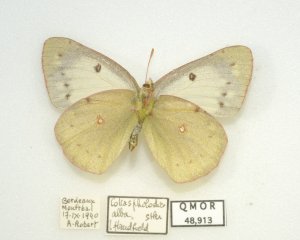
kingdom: Animalia
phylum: Arthropoda
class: Insecta
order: Lepidoptera
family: Pieridae
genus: Colias
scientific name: Colias philodice
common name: Clouded Sulphur
